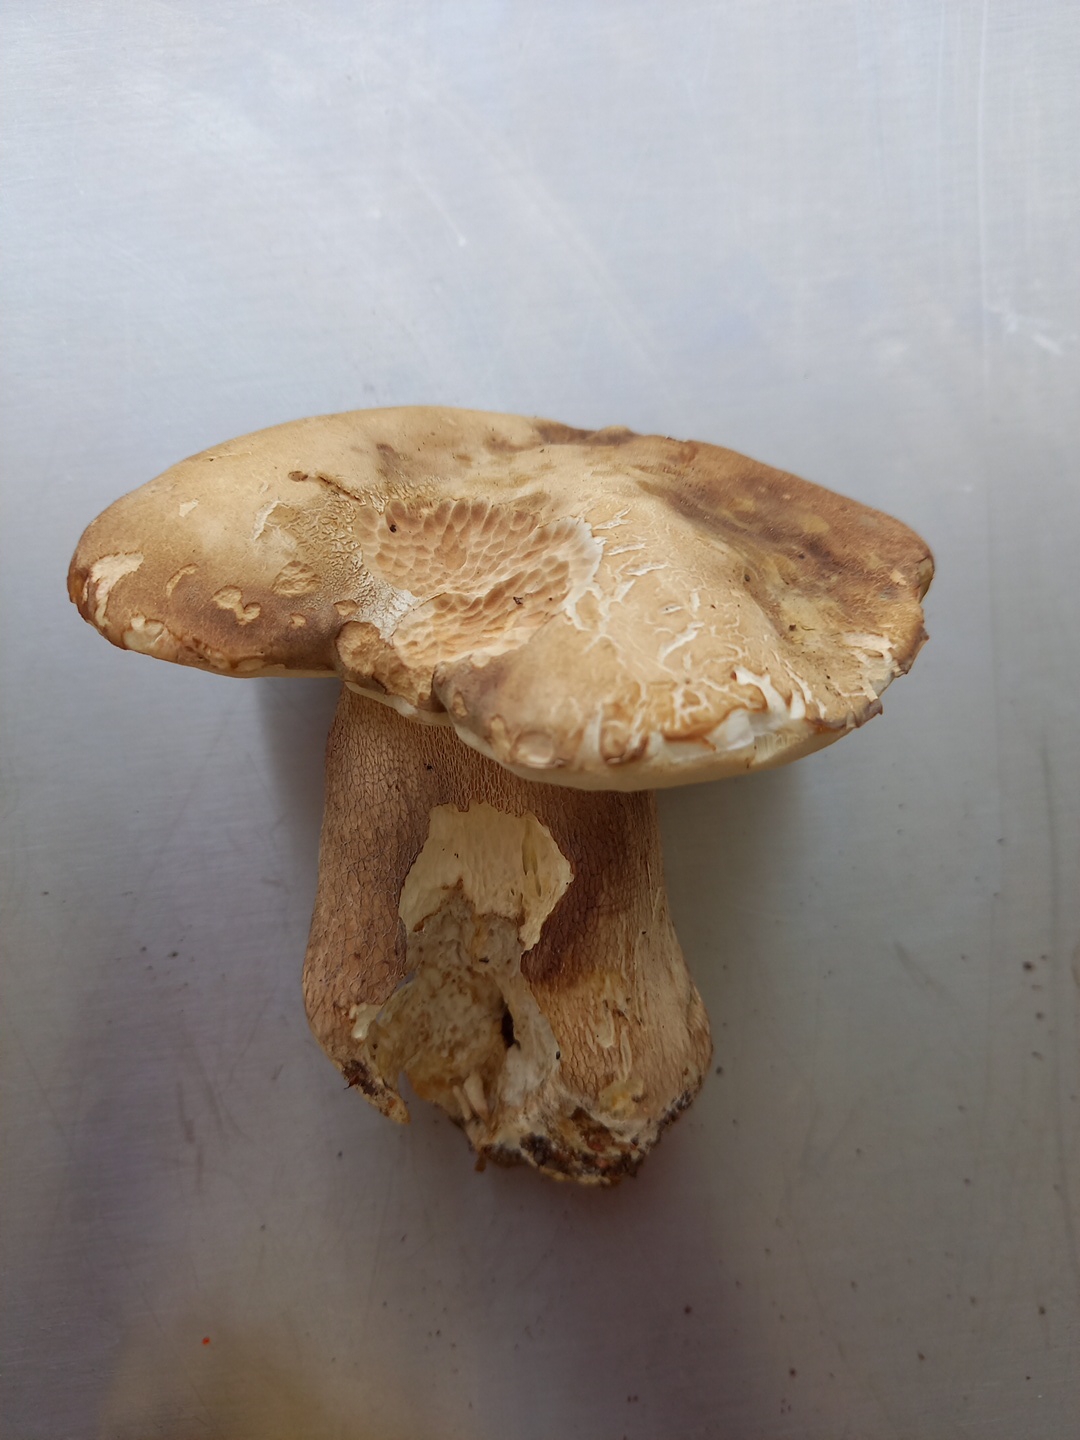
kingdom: Fungi
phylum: Basidiomycota
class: Agaricomycetes
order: Boletales
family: Boletaceae
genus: Boletus
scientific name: Boletus reticulatus
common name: sommer-rørhat
